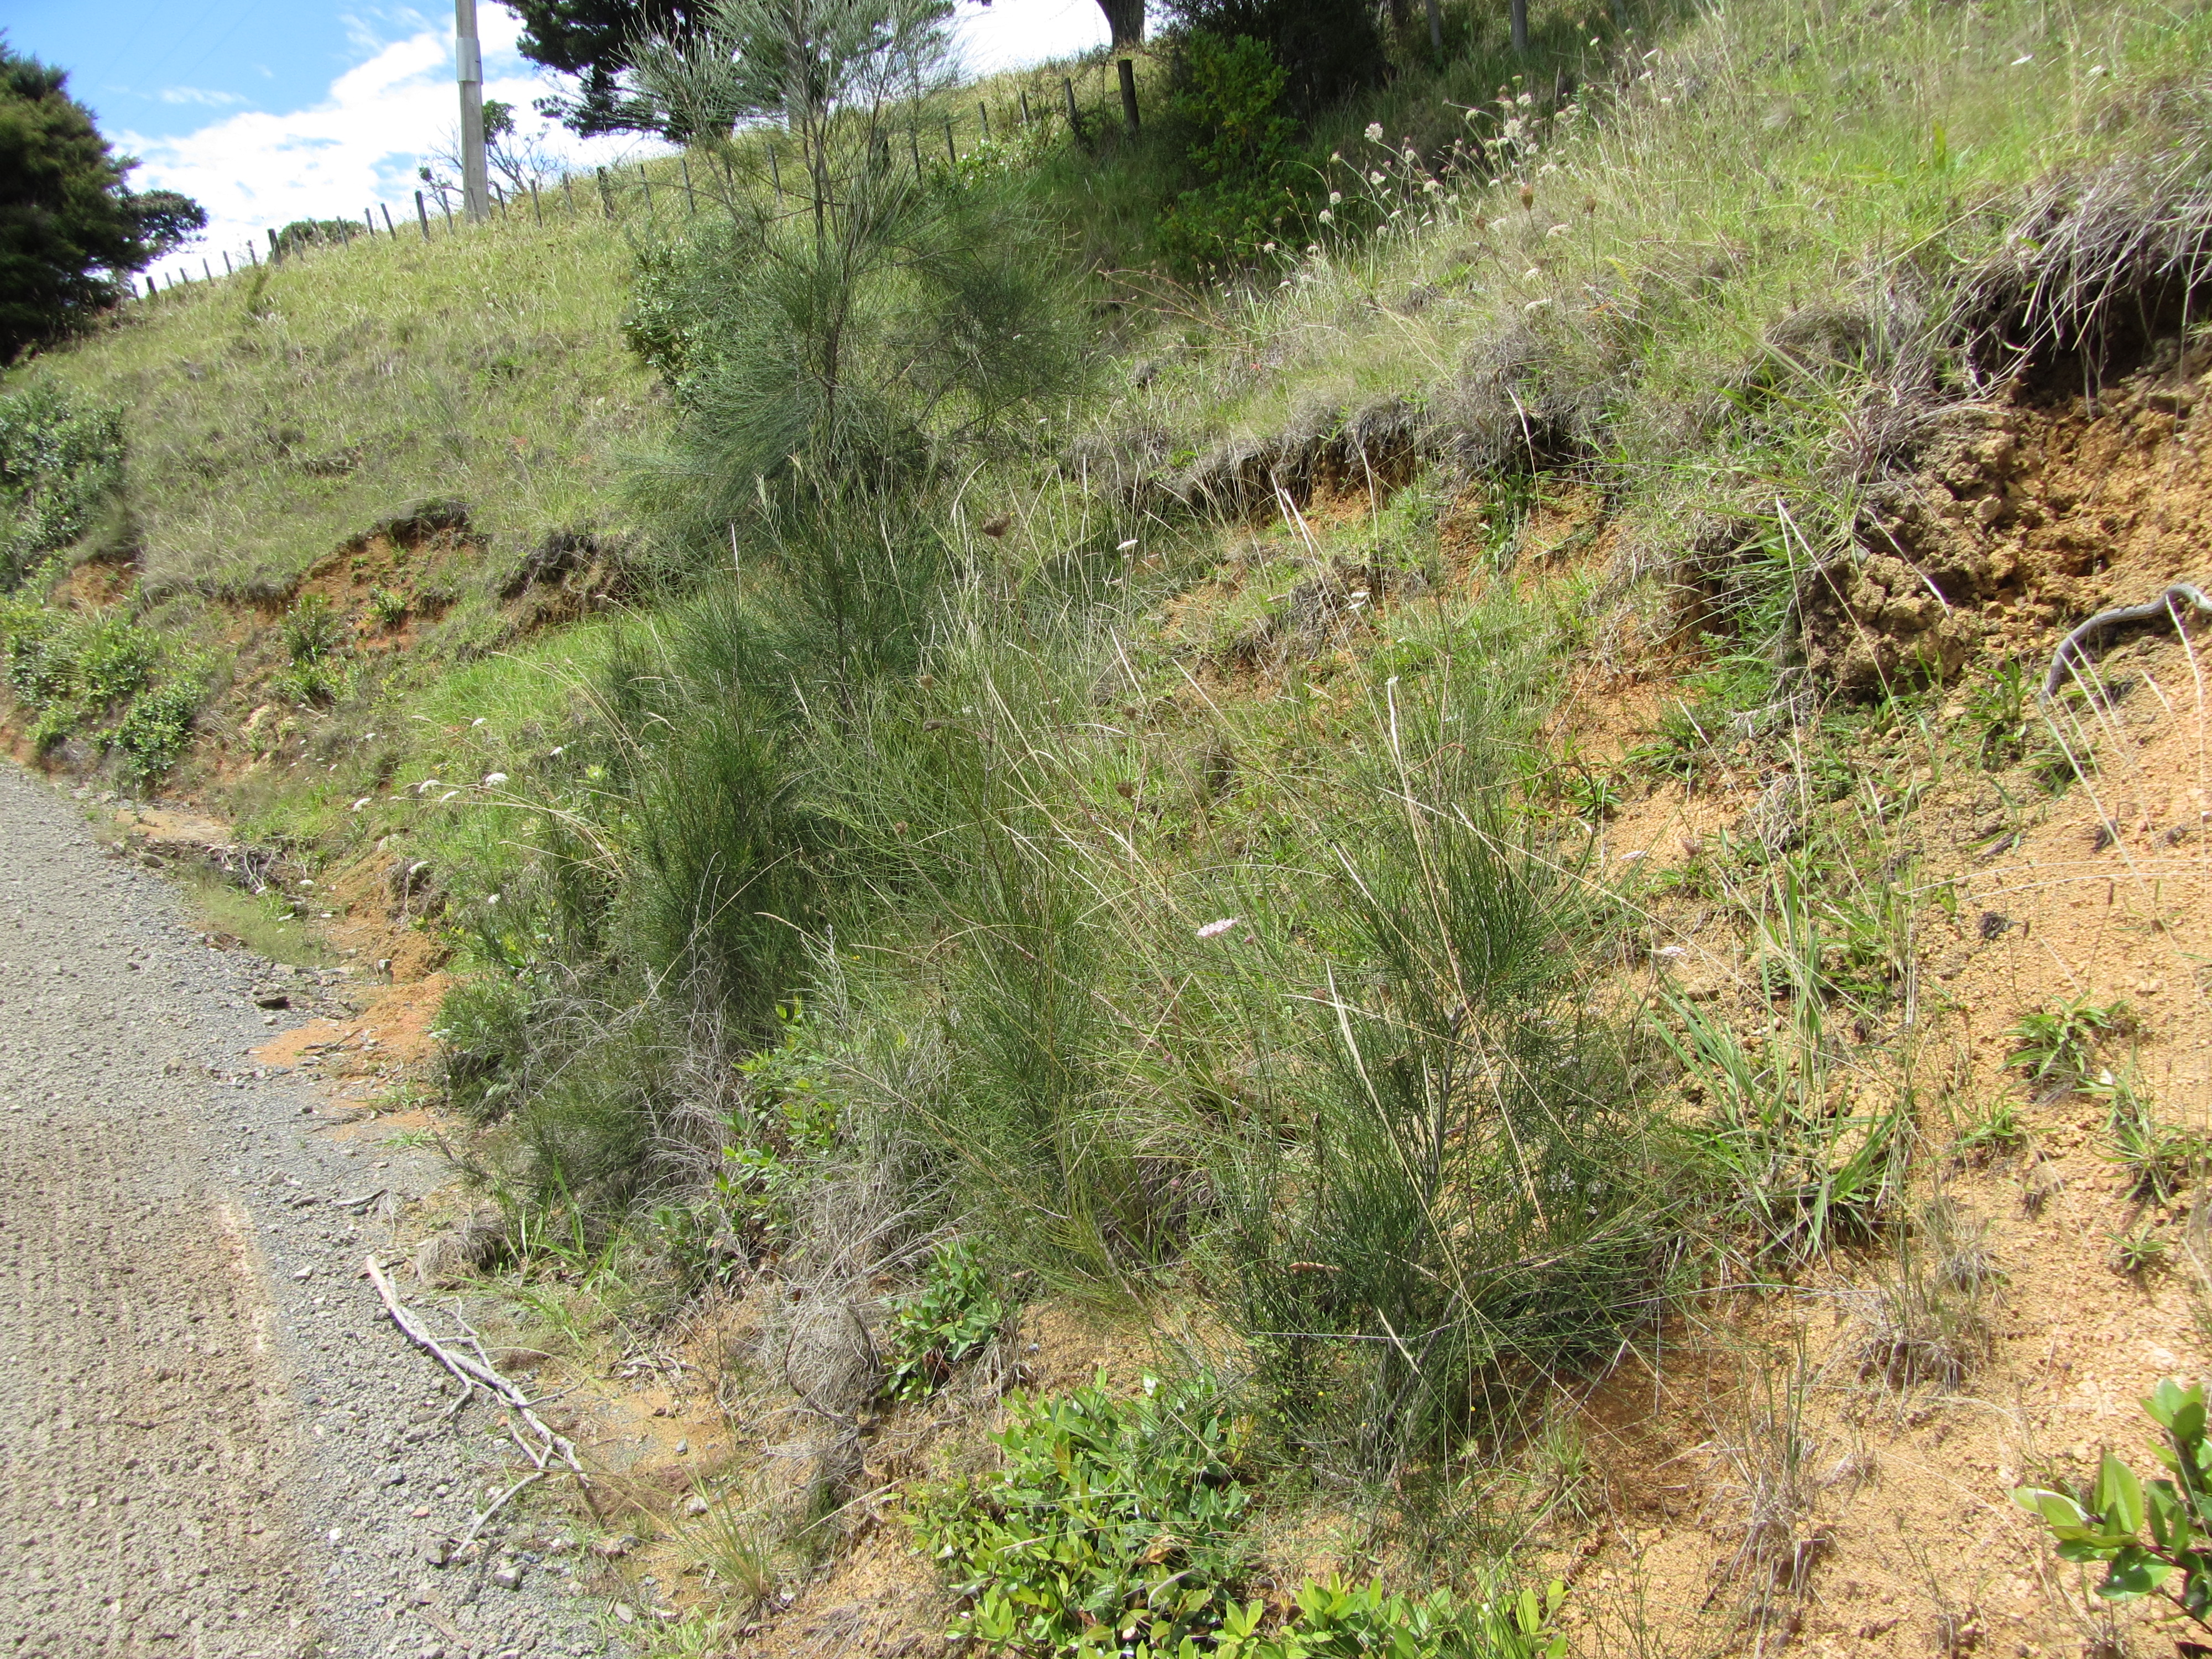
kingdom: Plantae
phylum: Tracheophyta
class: Magnoliopsida
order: Fagales
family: Casuarinaceae
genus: Casuarina
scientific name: Casuarina glauca
